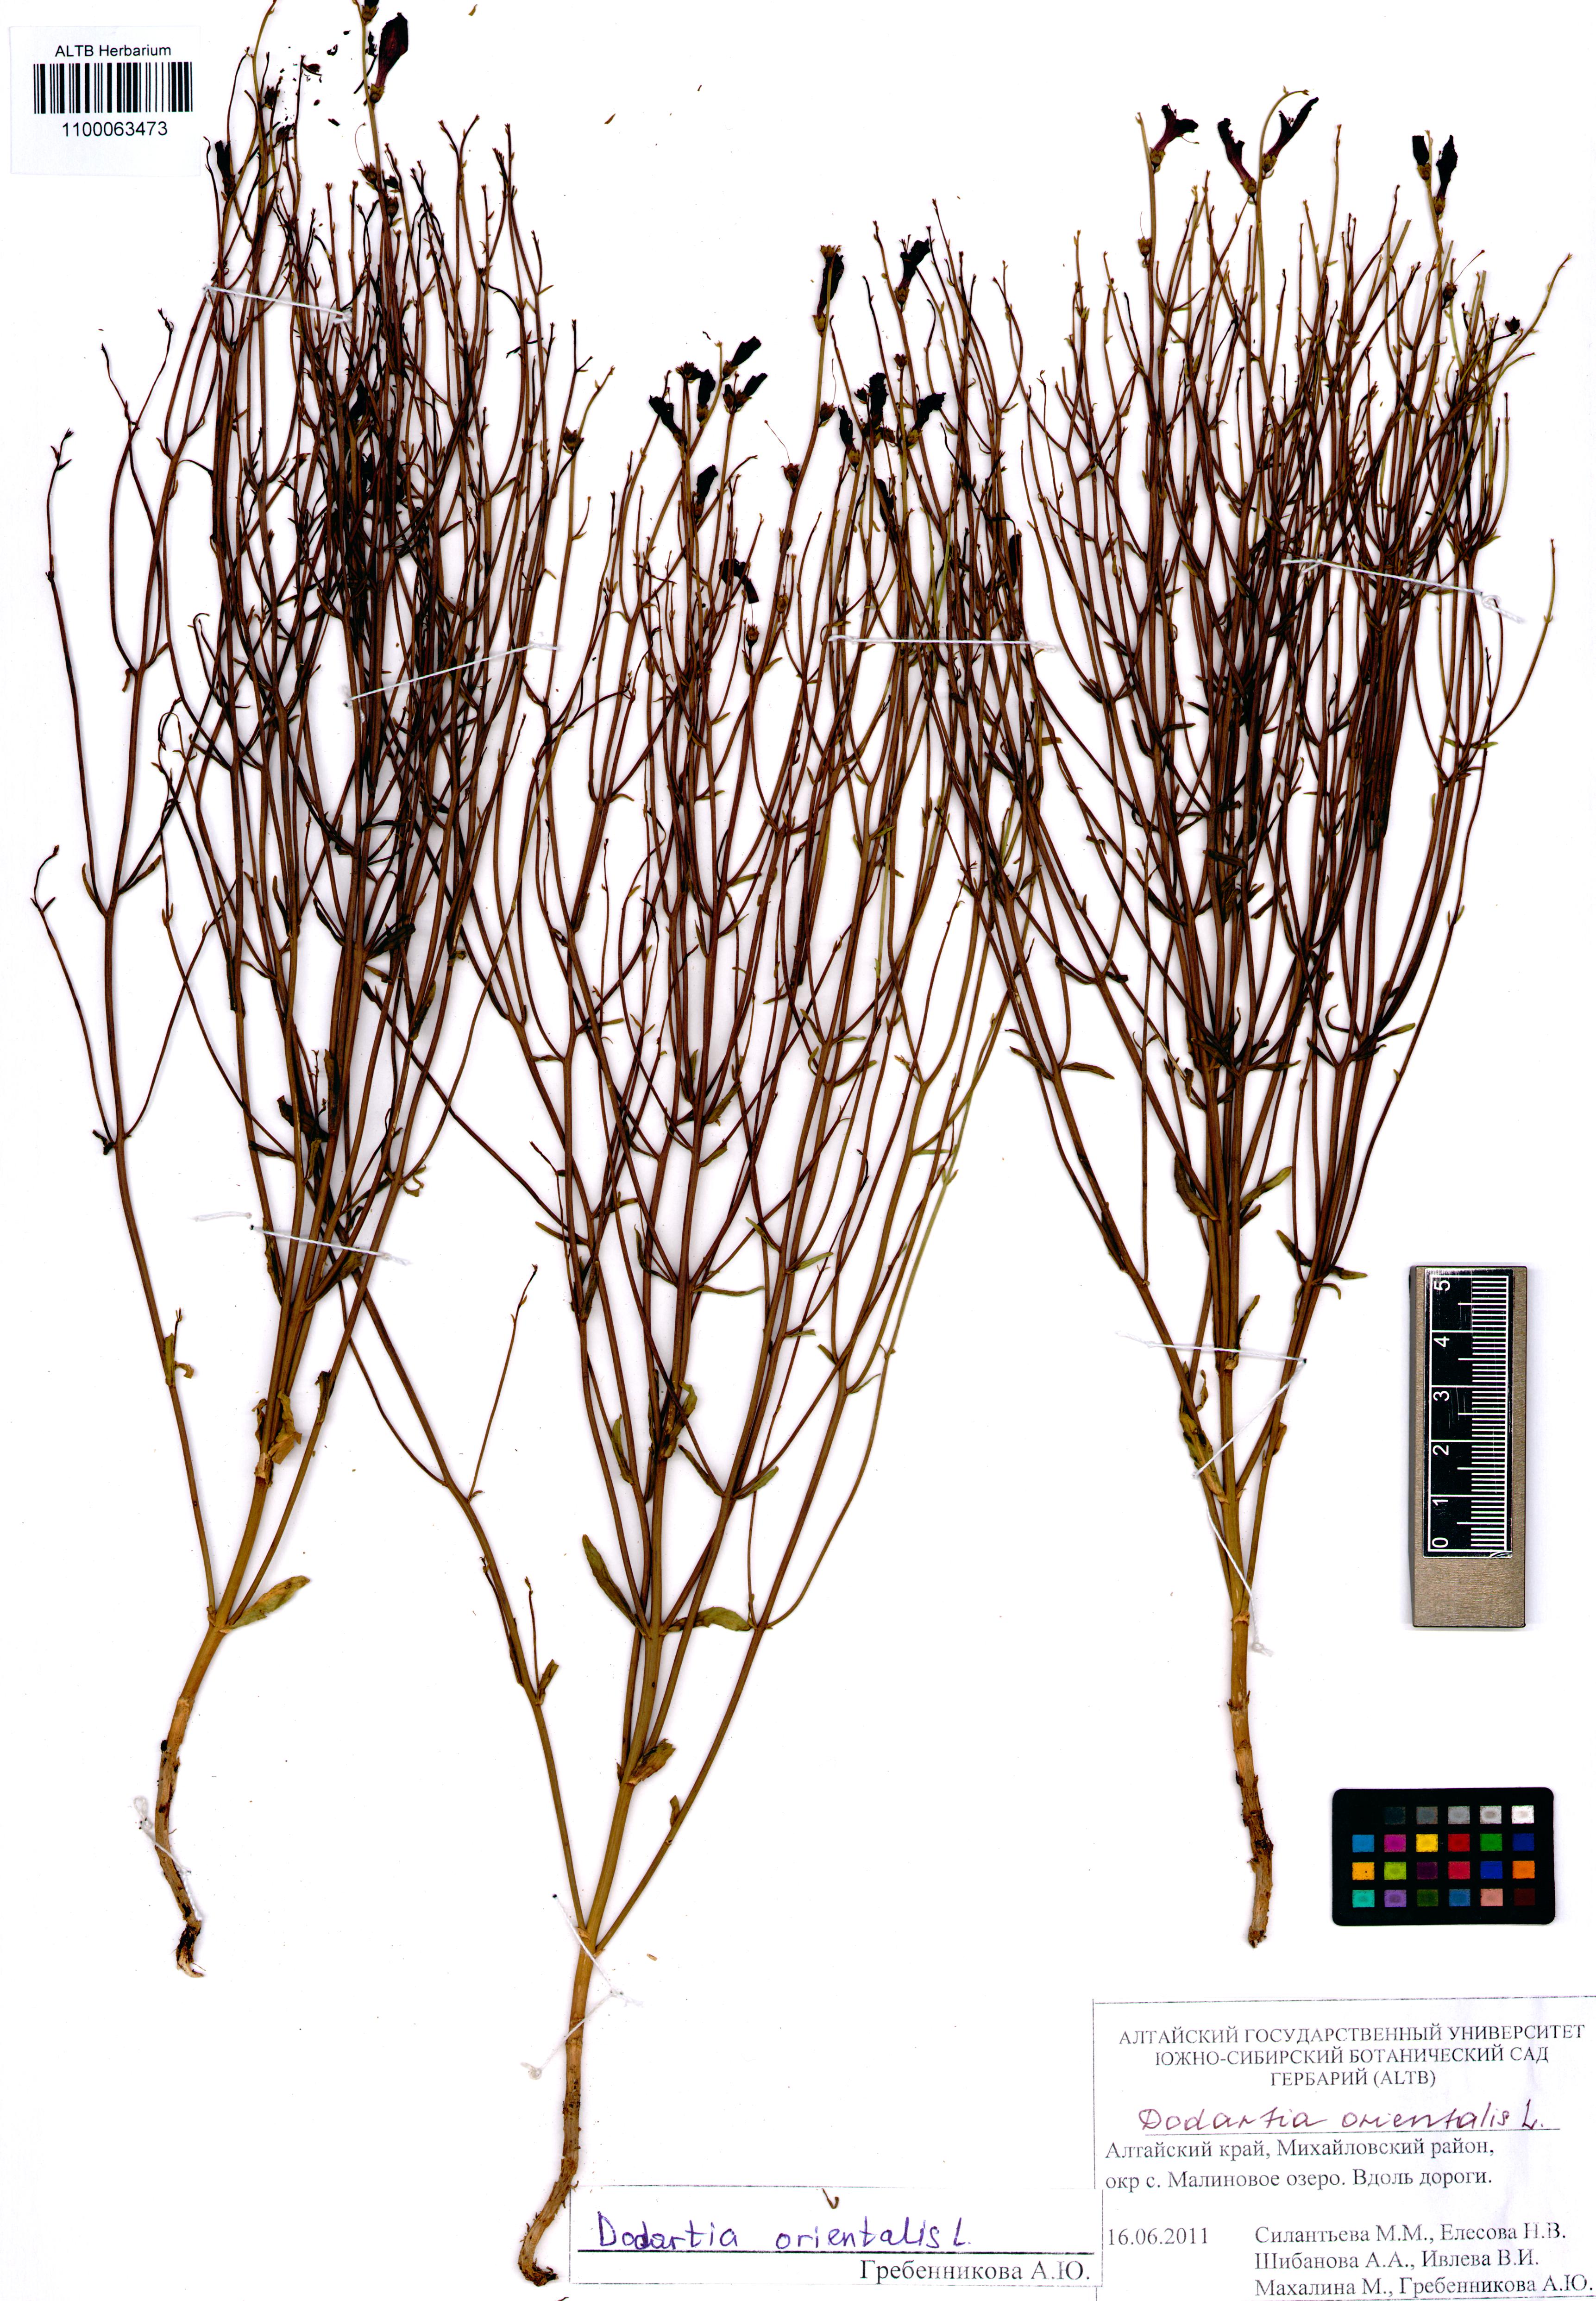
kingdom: Plantae
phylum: Tracheophyta
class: Magnoliopsida
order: Lamiales
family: Mazaceae
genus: Dodartia
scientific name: Dodartia orientalis
